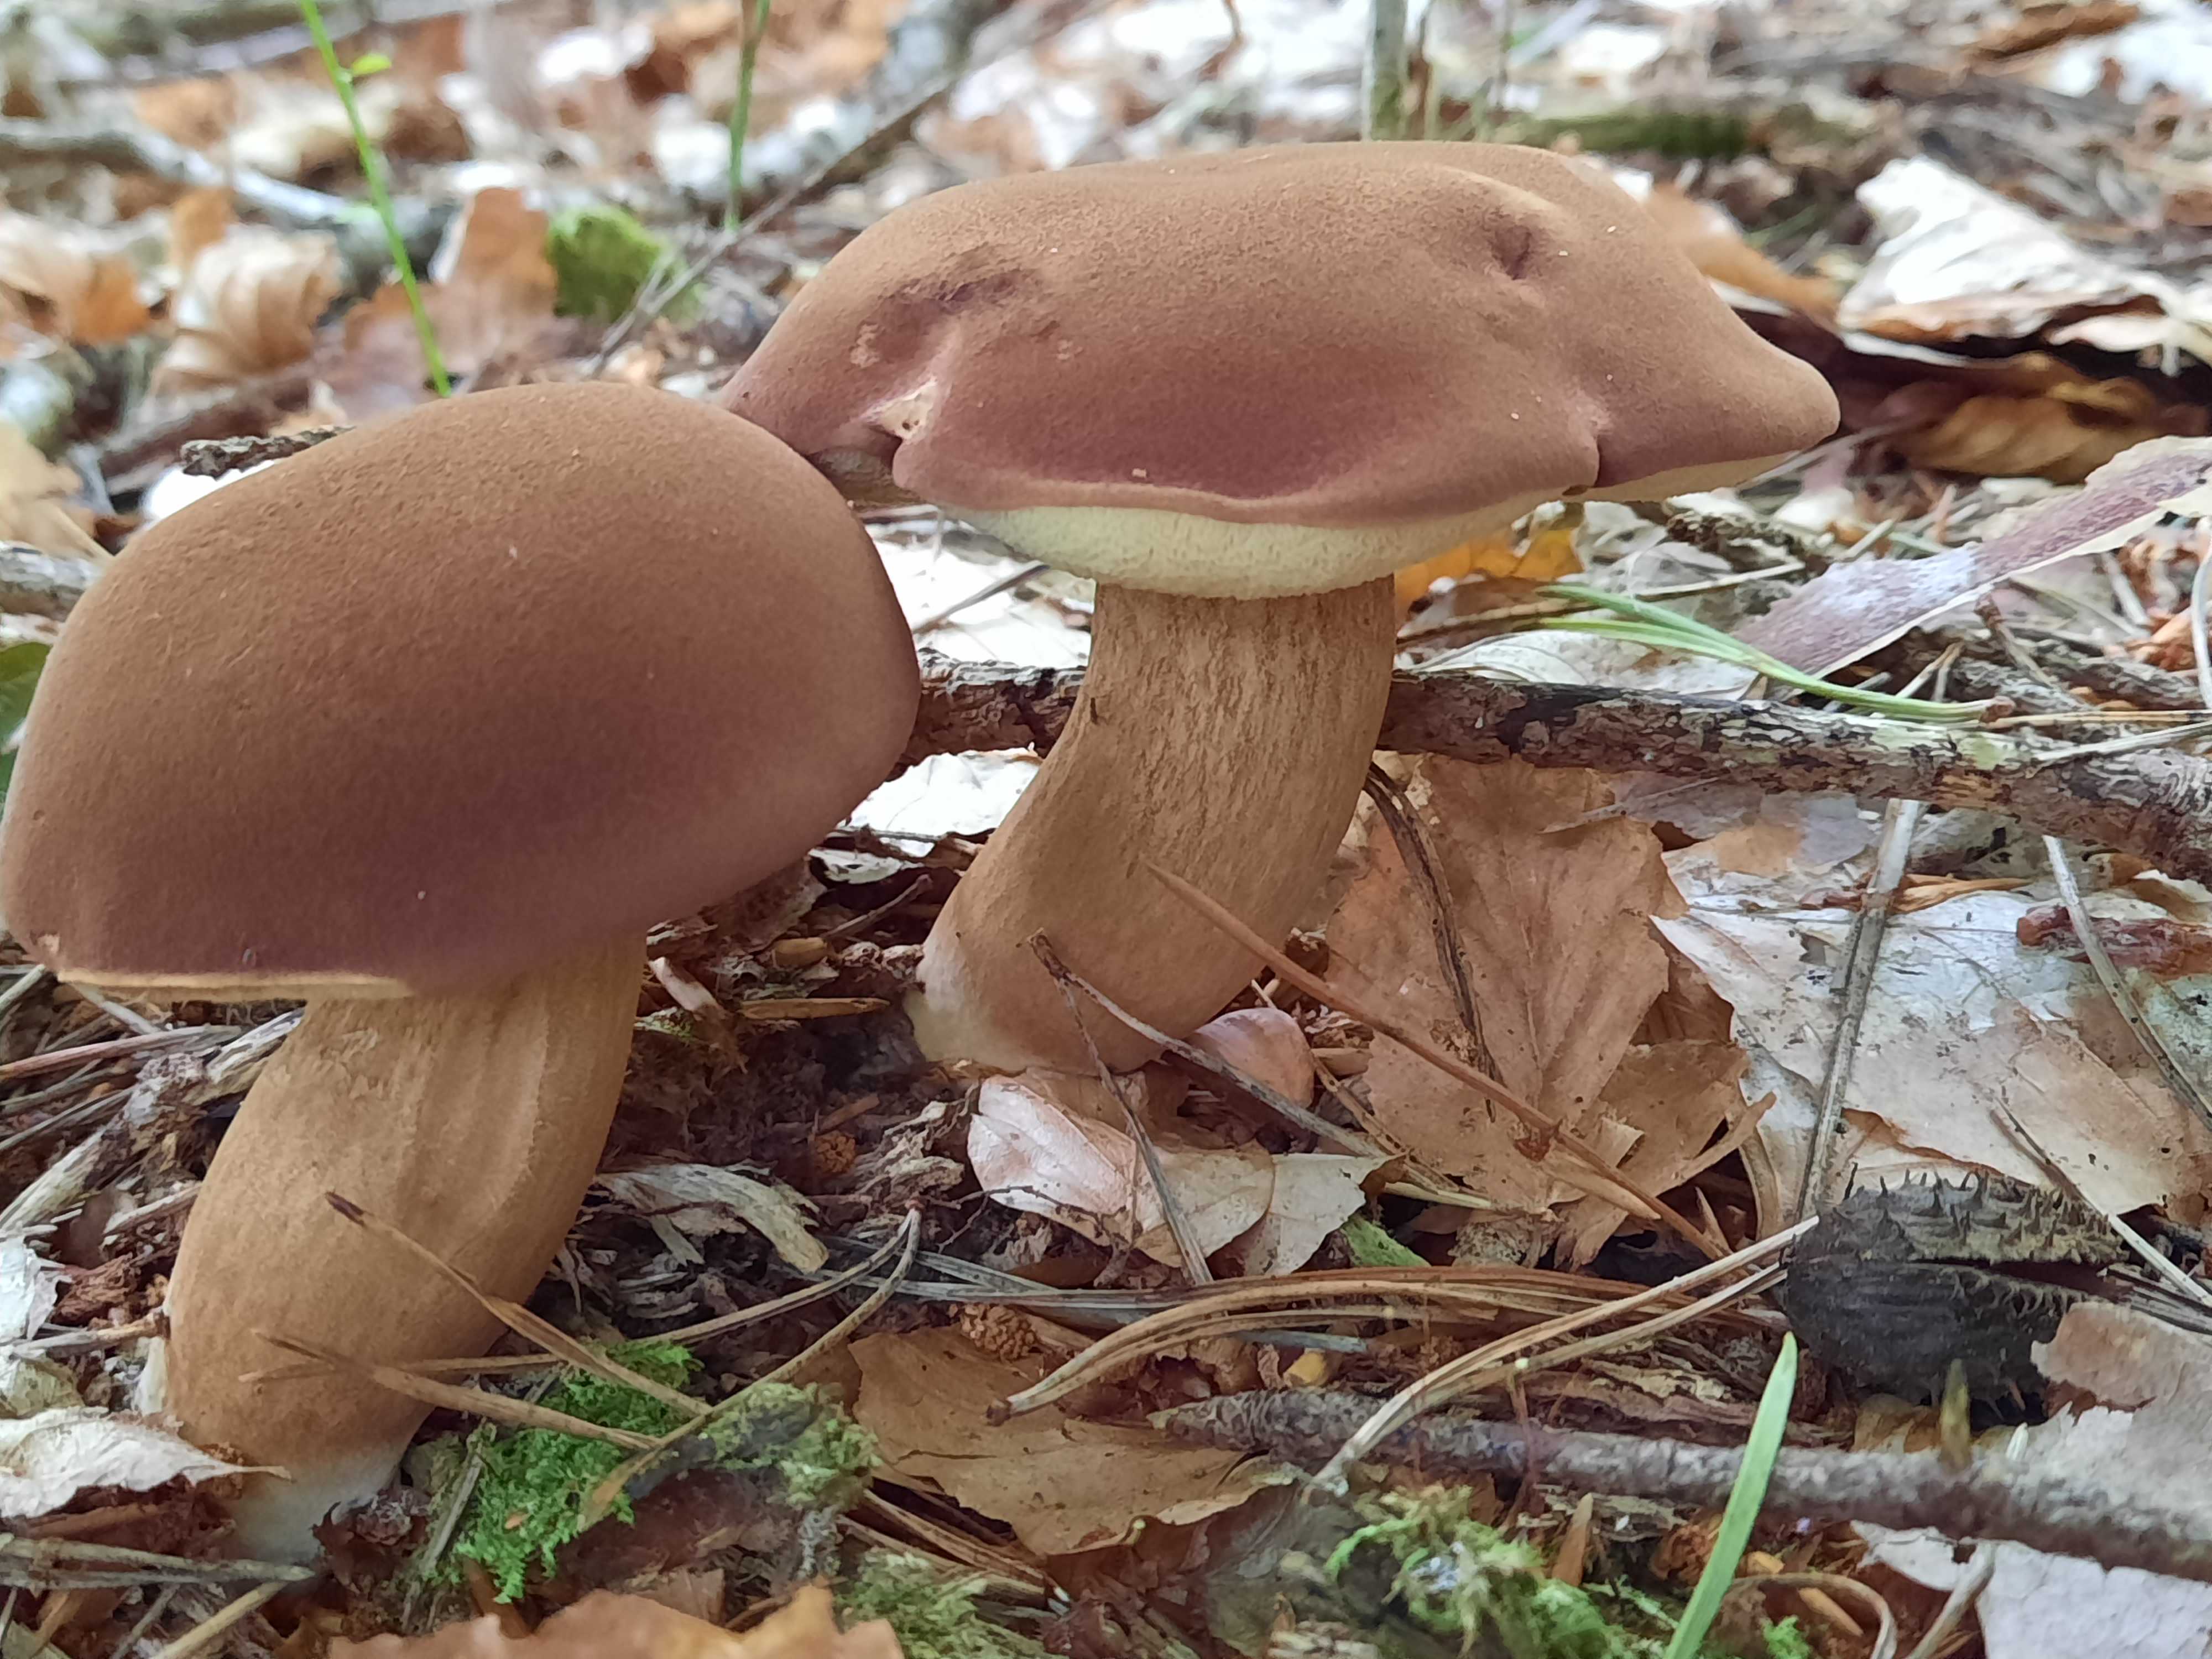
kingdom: Fungi
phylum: Basidiomycota
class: Agaricomycetes
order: Boletales
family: Boletaceae
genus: Imleria
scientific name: Imleria badia
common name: brunstokket rørhat
